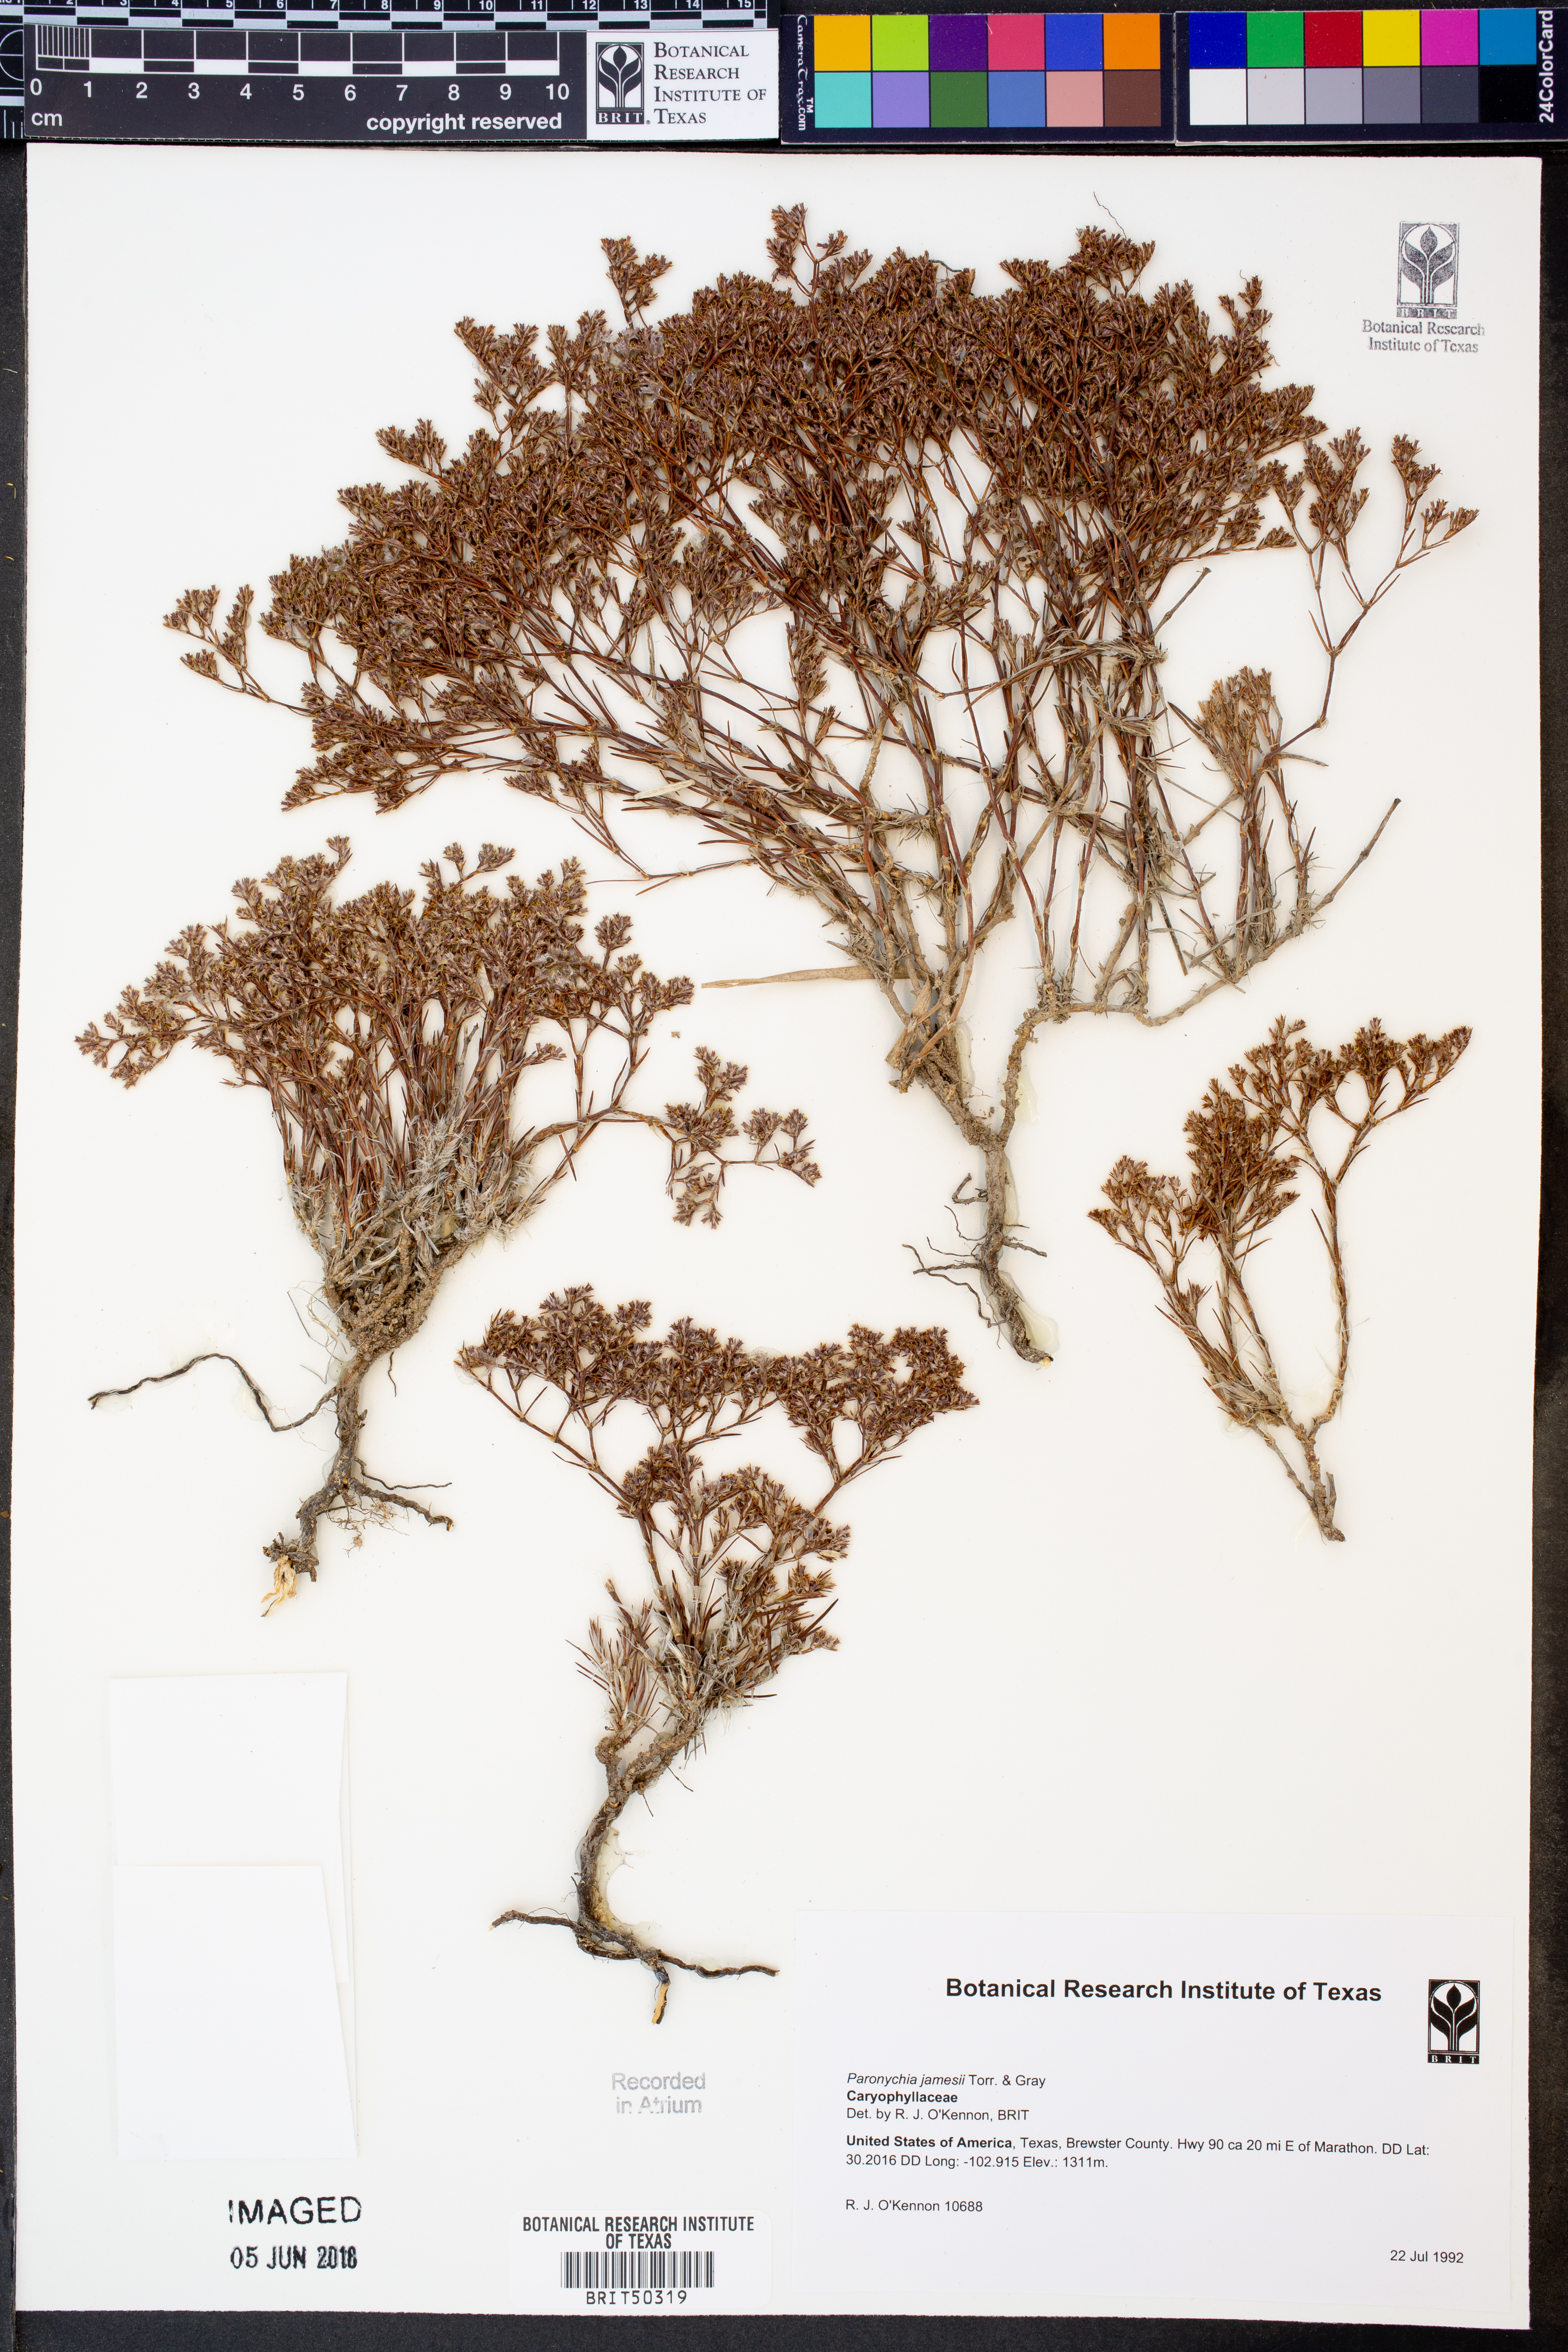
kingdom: Plantae
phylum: Tracheophyta
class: Magnoliopsida
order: Caryophyllales
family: Caryophyllaceae
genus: Paronychia
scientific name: Paronychia jamesii
